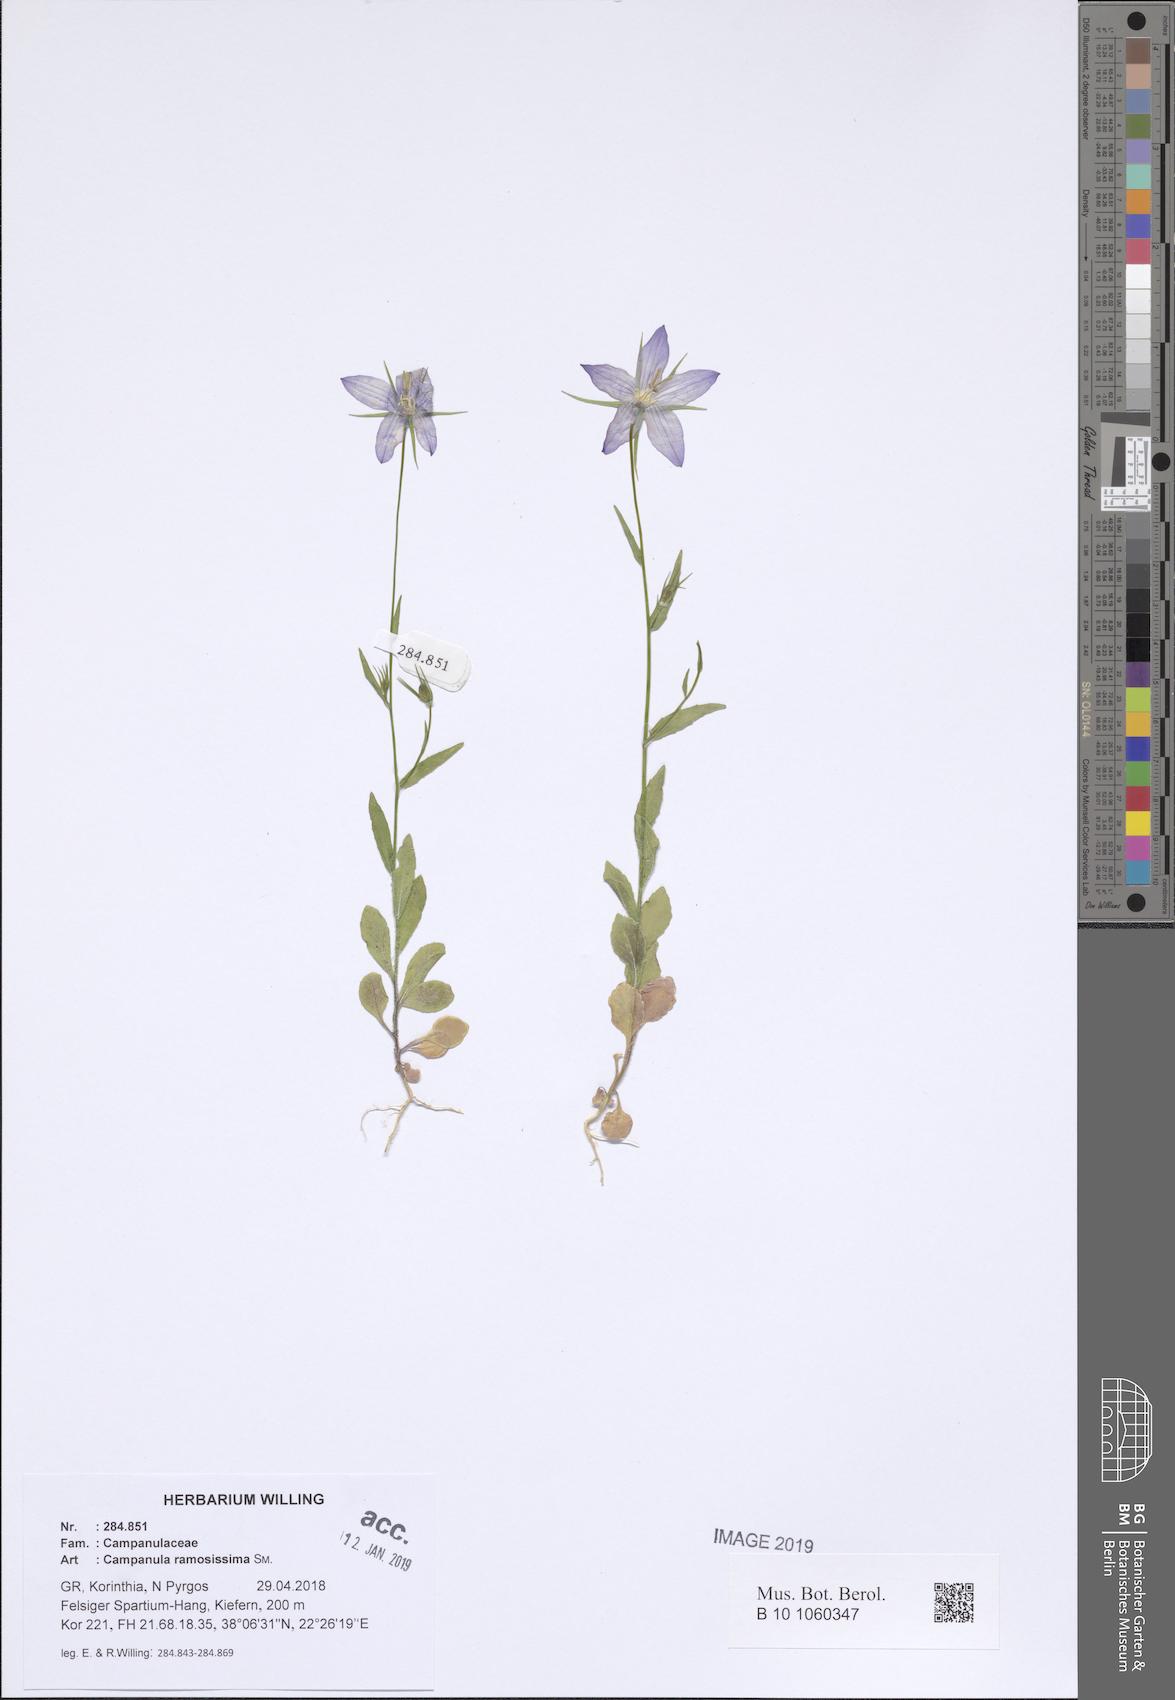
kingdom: Plantae
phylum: Tracheophyta
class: Magnoliopsida
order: Asterales
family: Campanulaceae
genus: Campanula
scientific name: Campanula ramosissima
